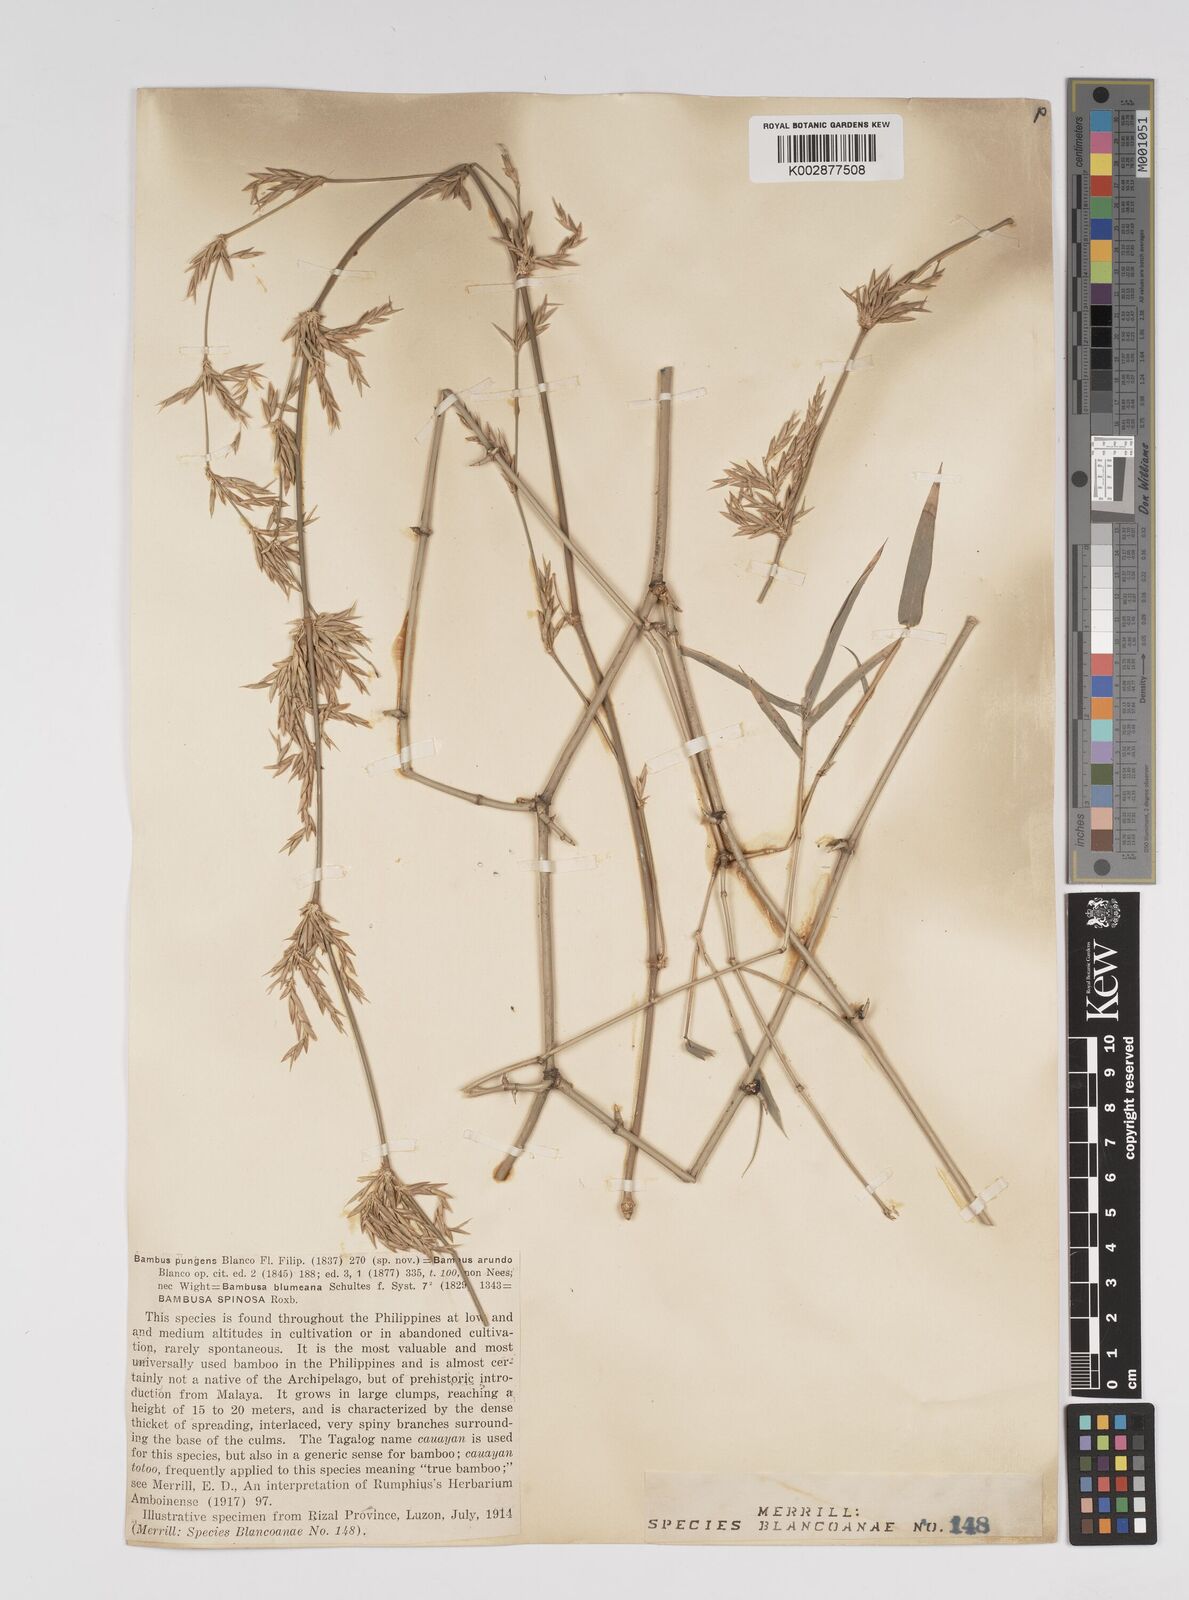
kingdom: Plantae
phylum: Tracheophyta
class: Liliopsida
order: Poales
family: Poaceae
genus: Bambusa
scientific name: Bambusa spinosa
